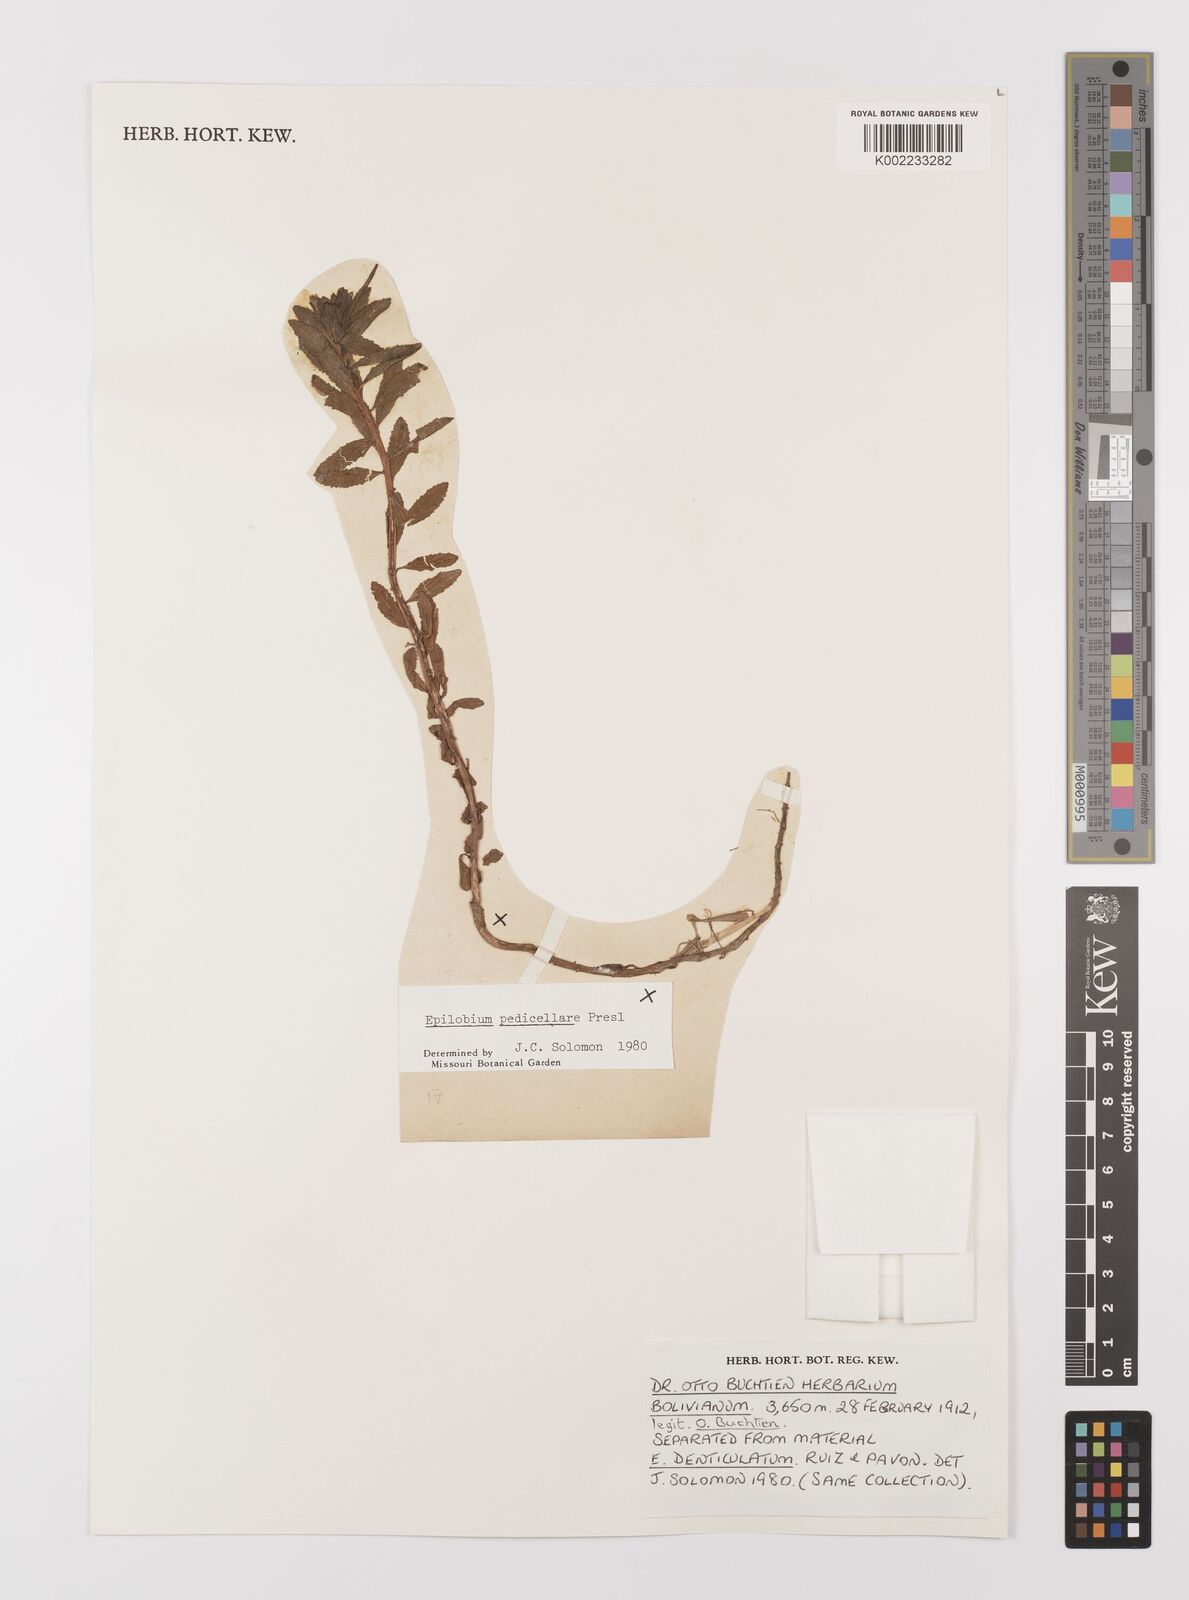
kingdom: Plantae
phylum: Tracheophyta
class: Magnoliopsida
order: Myrtales
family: Onagraceae
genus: Epilobium
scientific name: Epilobium pedicellare
